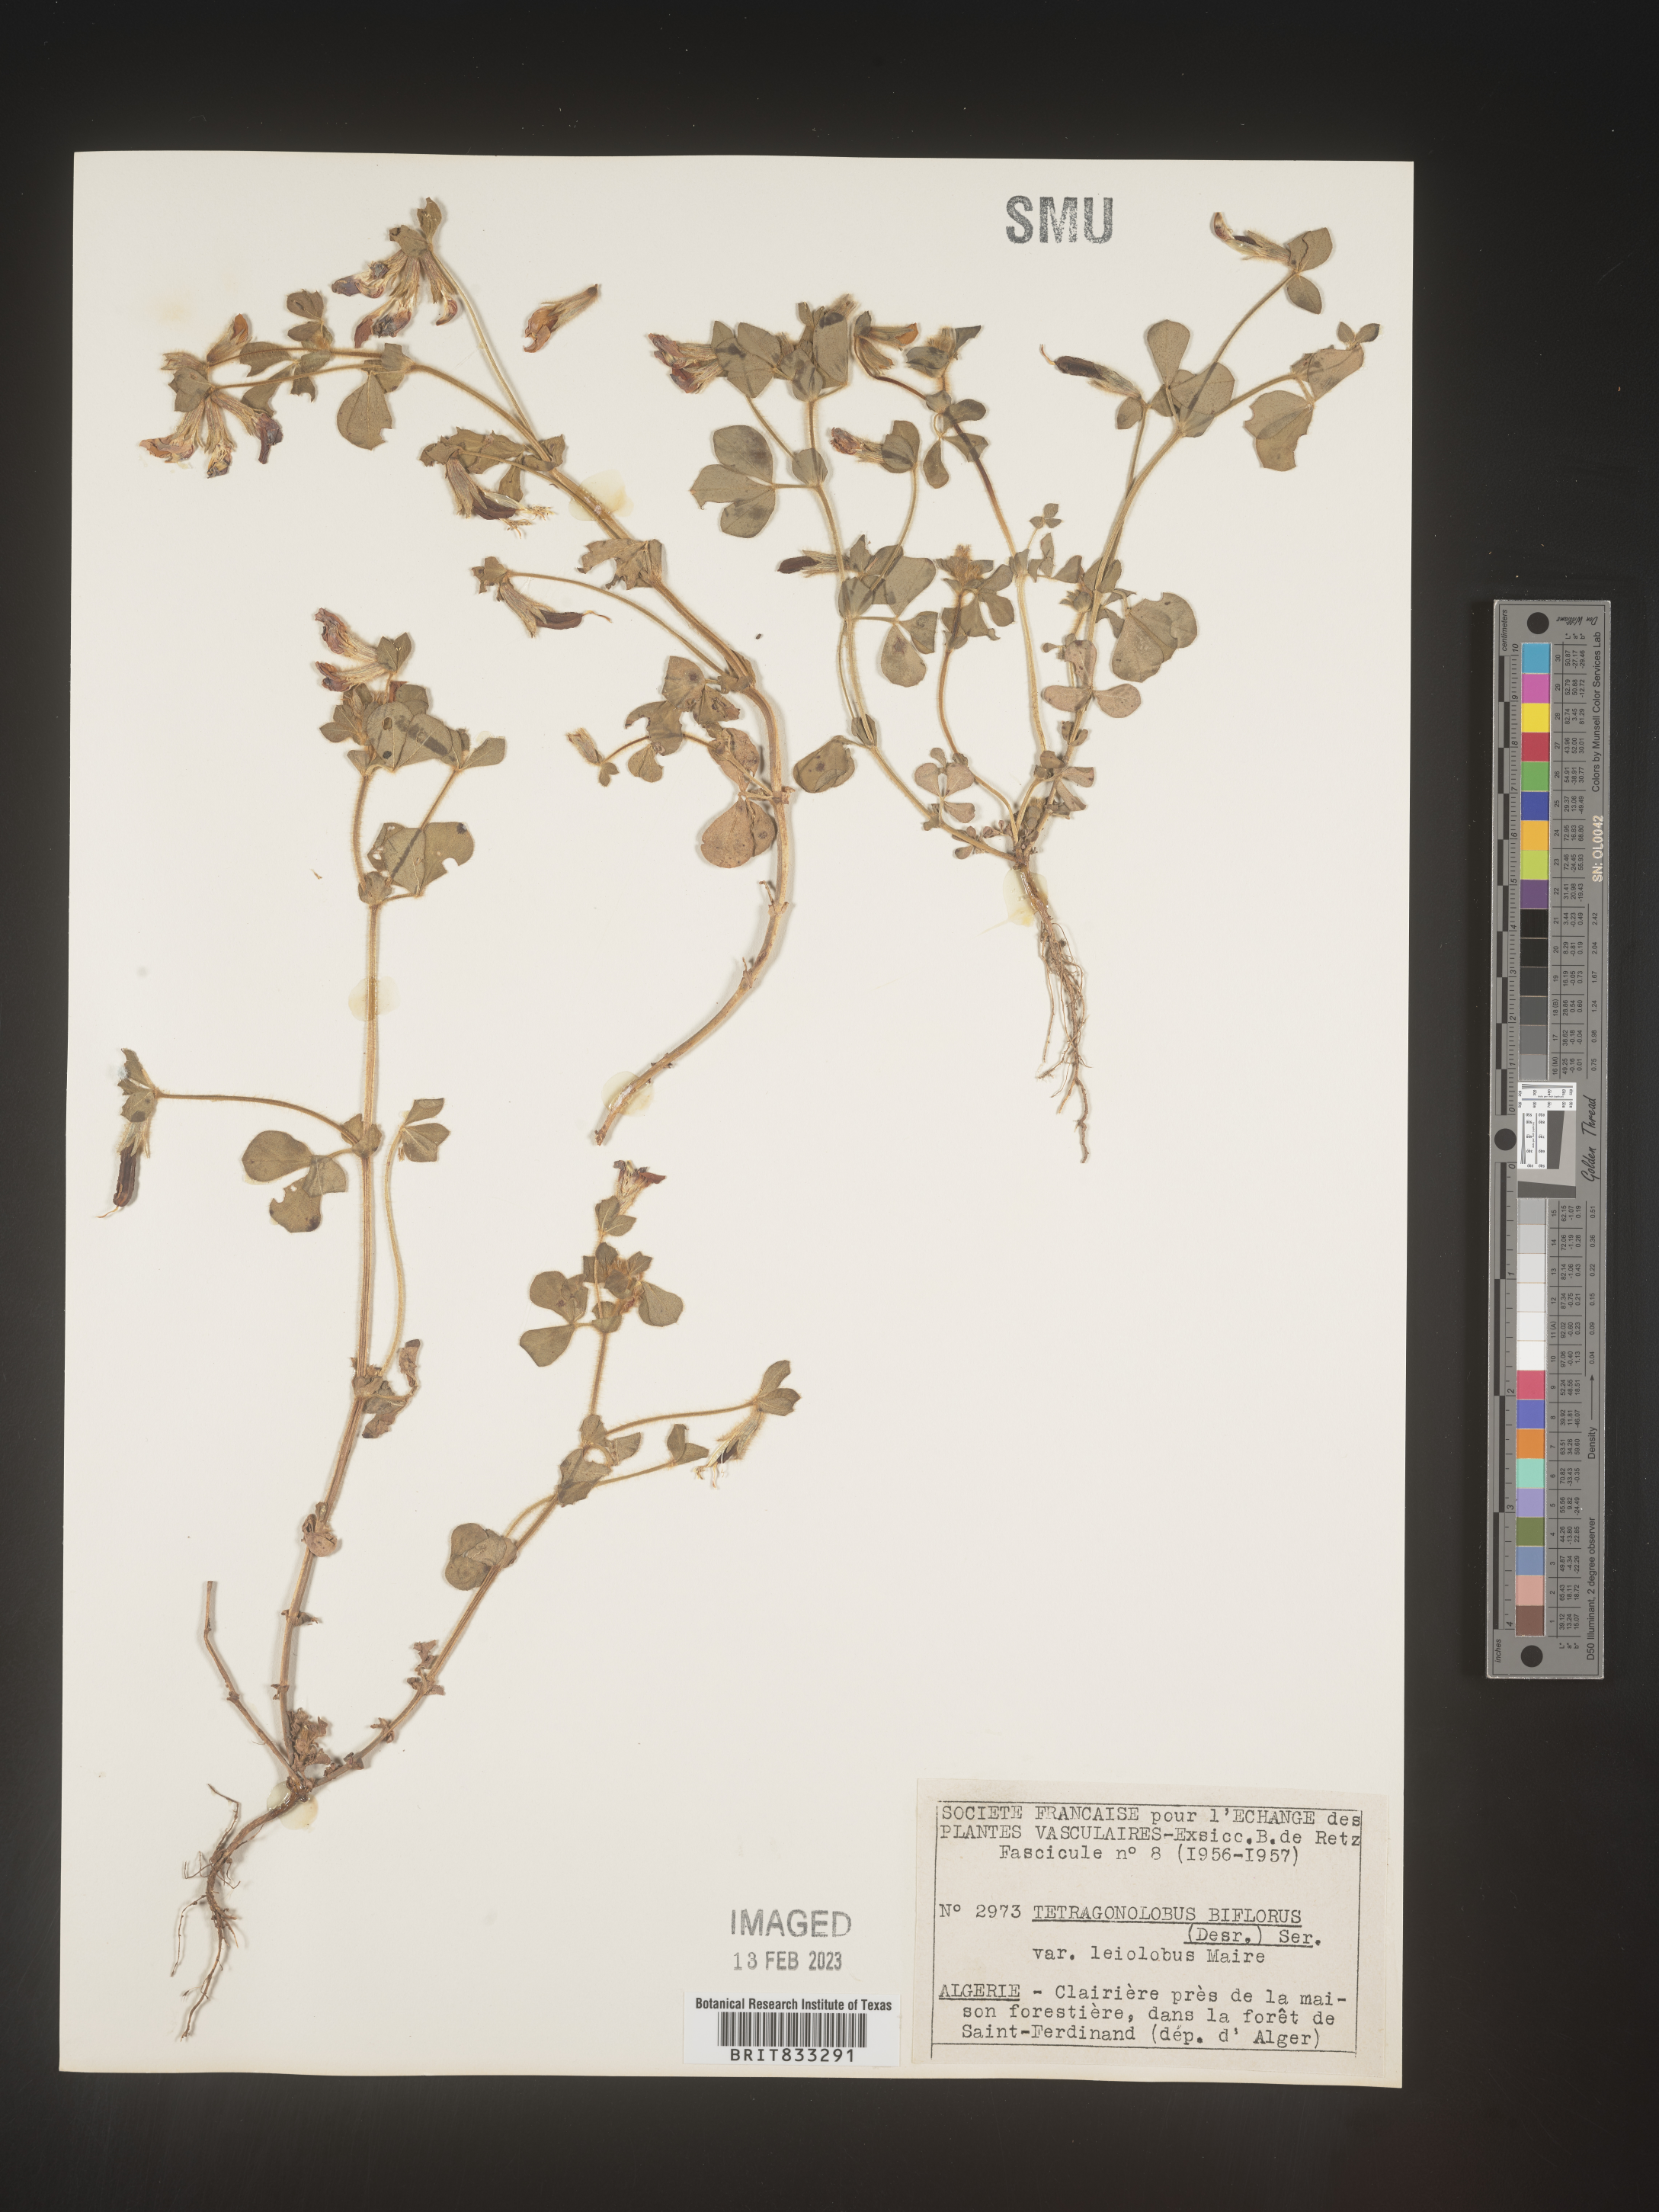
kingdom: Plantae
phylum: Tracheophyta
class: Magnoliopsida
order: Fabales
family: Fabaceae
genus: Lotus
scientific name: Lotus
